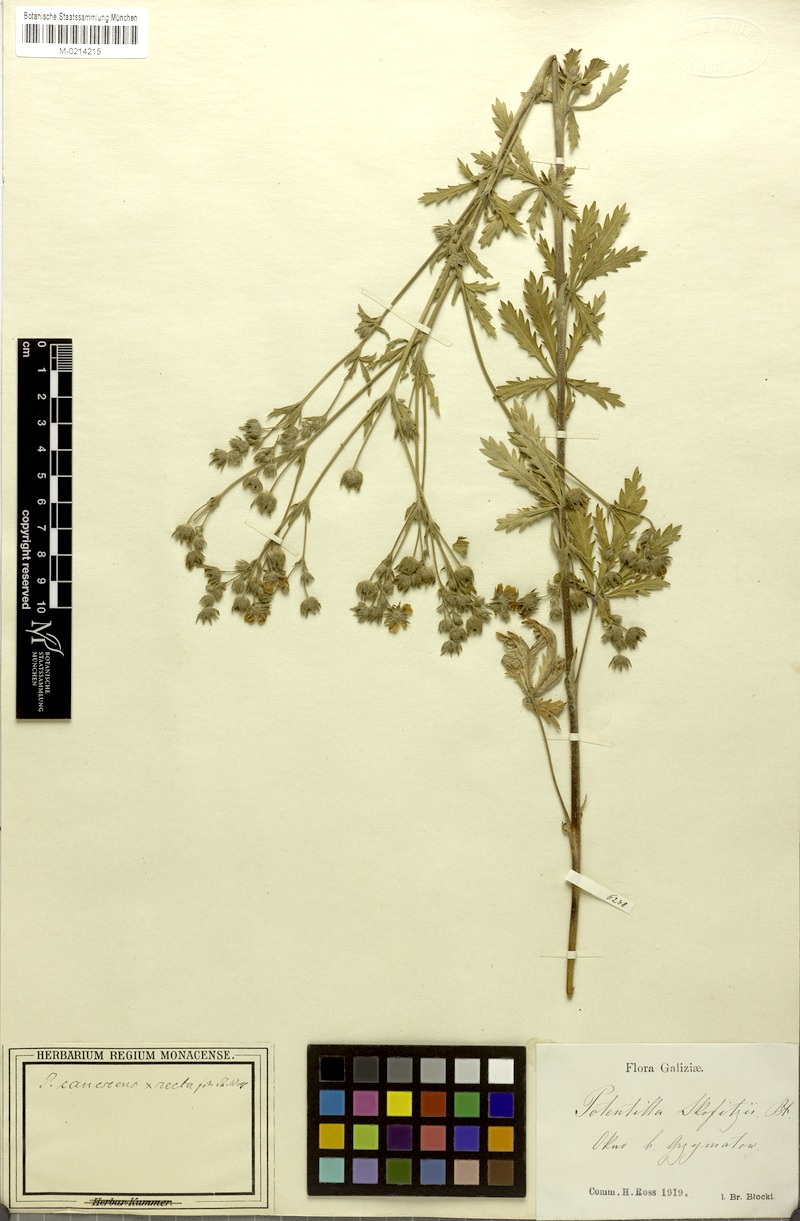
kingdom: Plantae
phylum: Tracheophyta
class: Magnoliopsida
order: Rosales
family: Rosaceae
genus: Potentilla
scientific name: Potentilla
